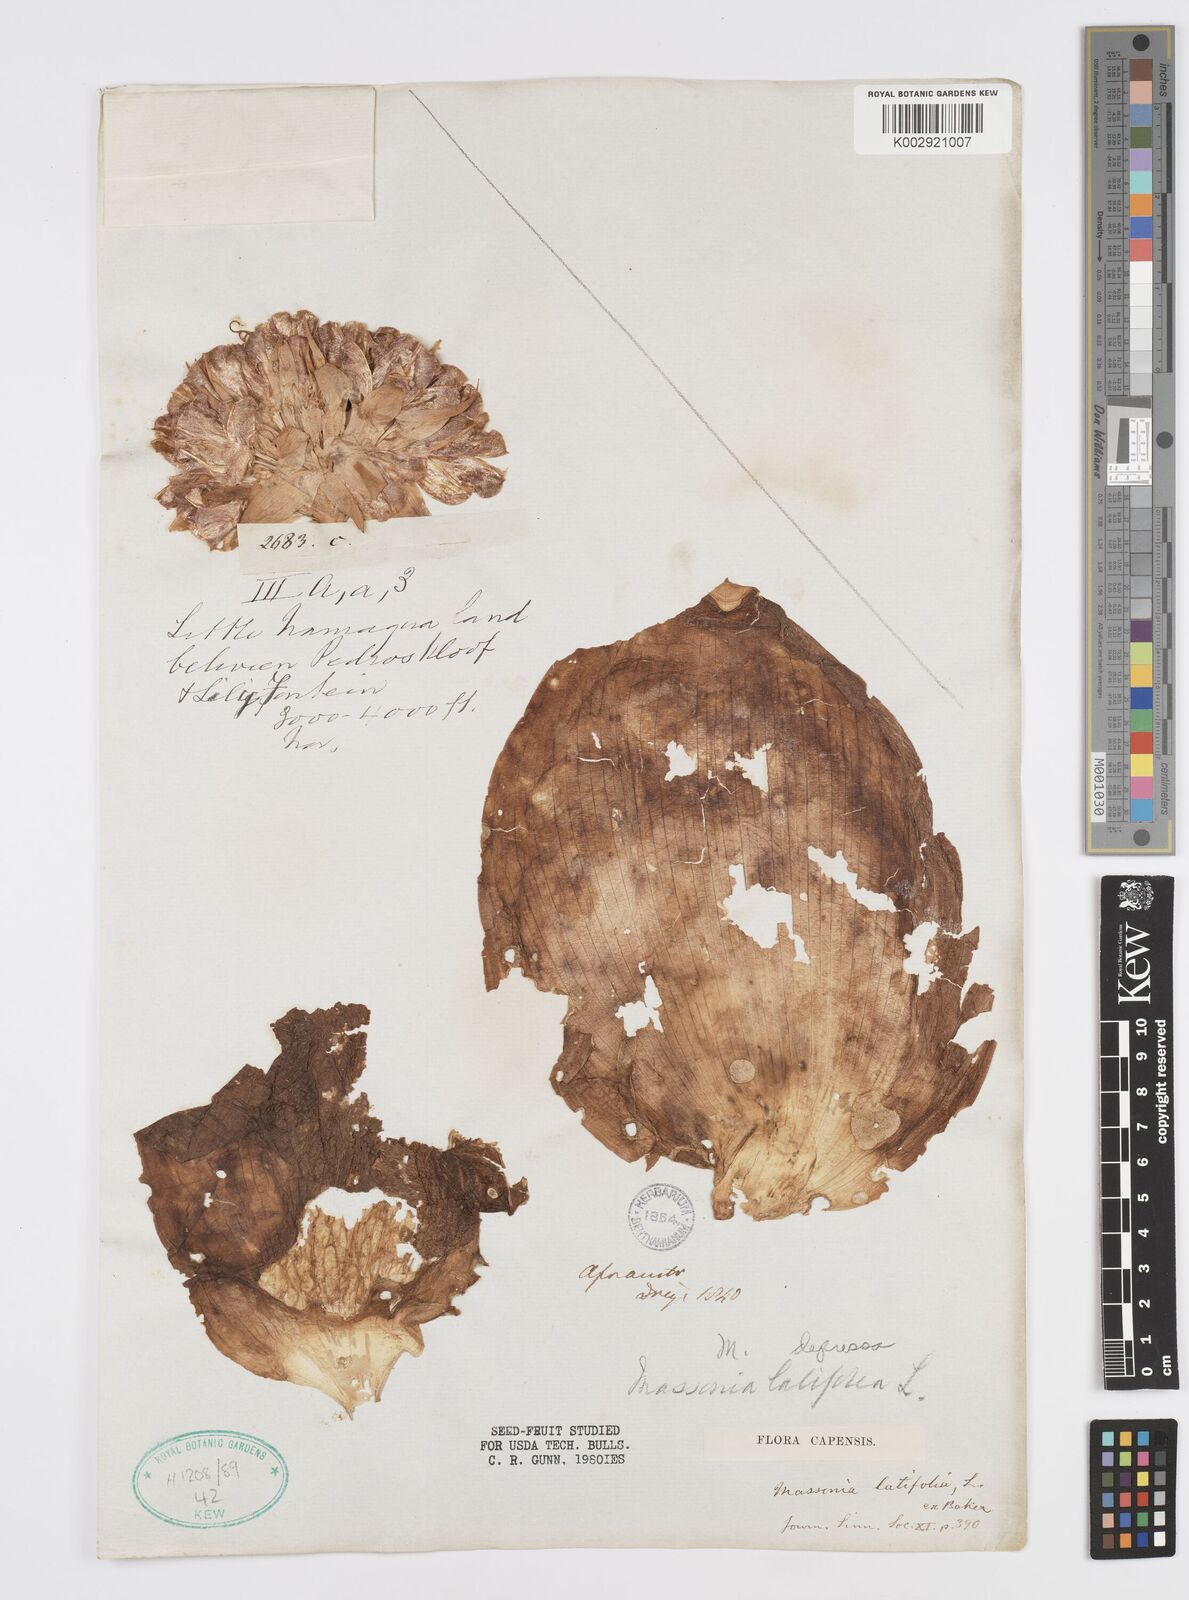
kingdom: Plantae
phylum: Tracheophyta
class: Liliopsida
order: Asparagales
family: Asparagaceae
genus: Massonia
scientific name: Massonia
